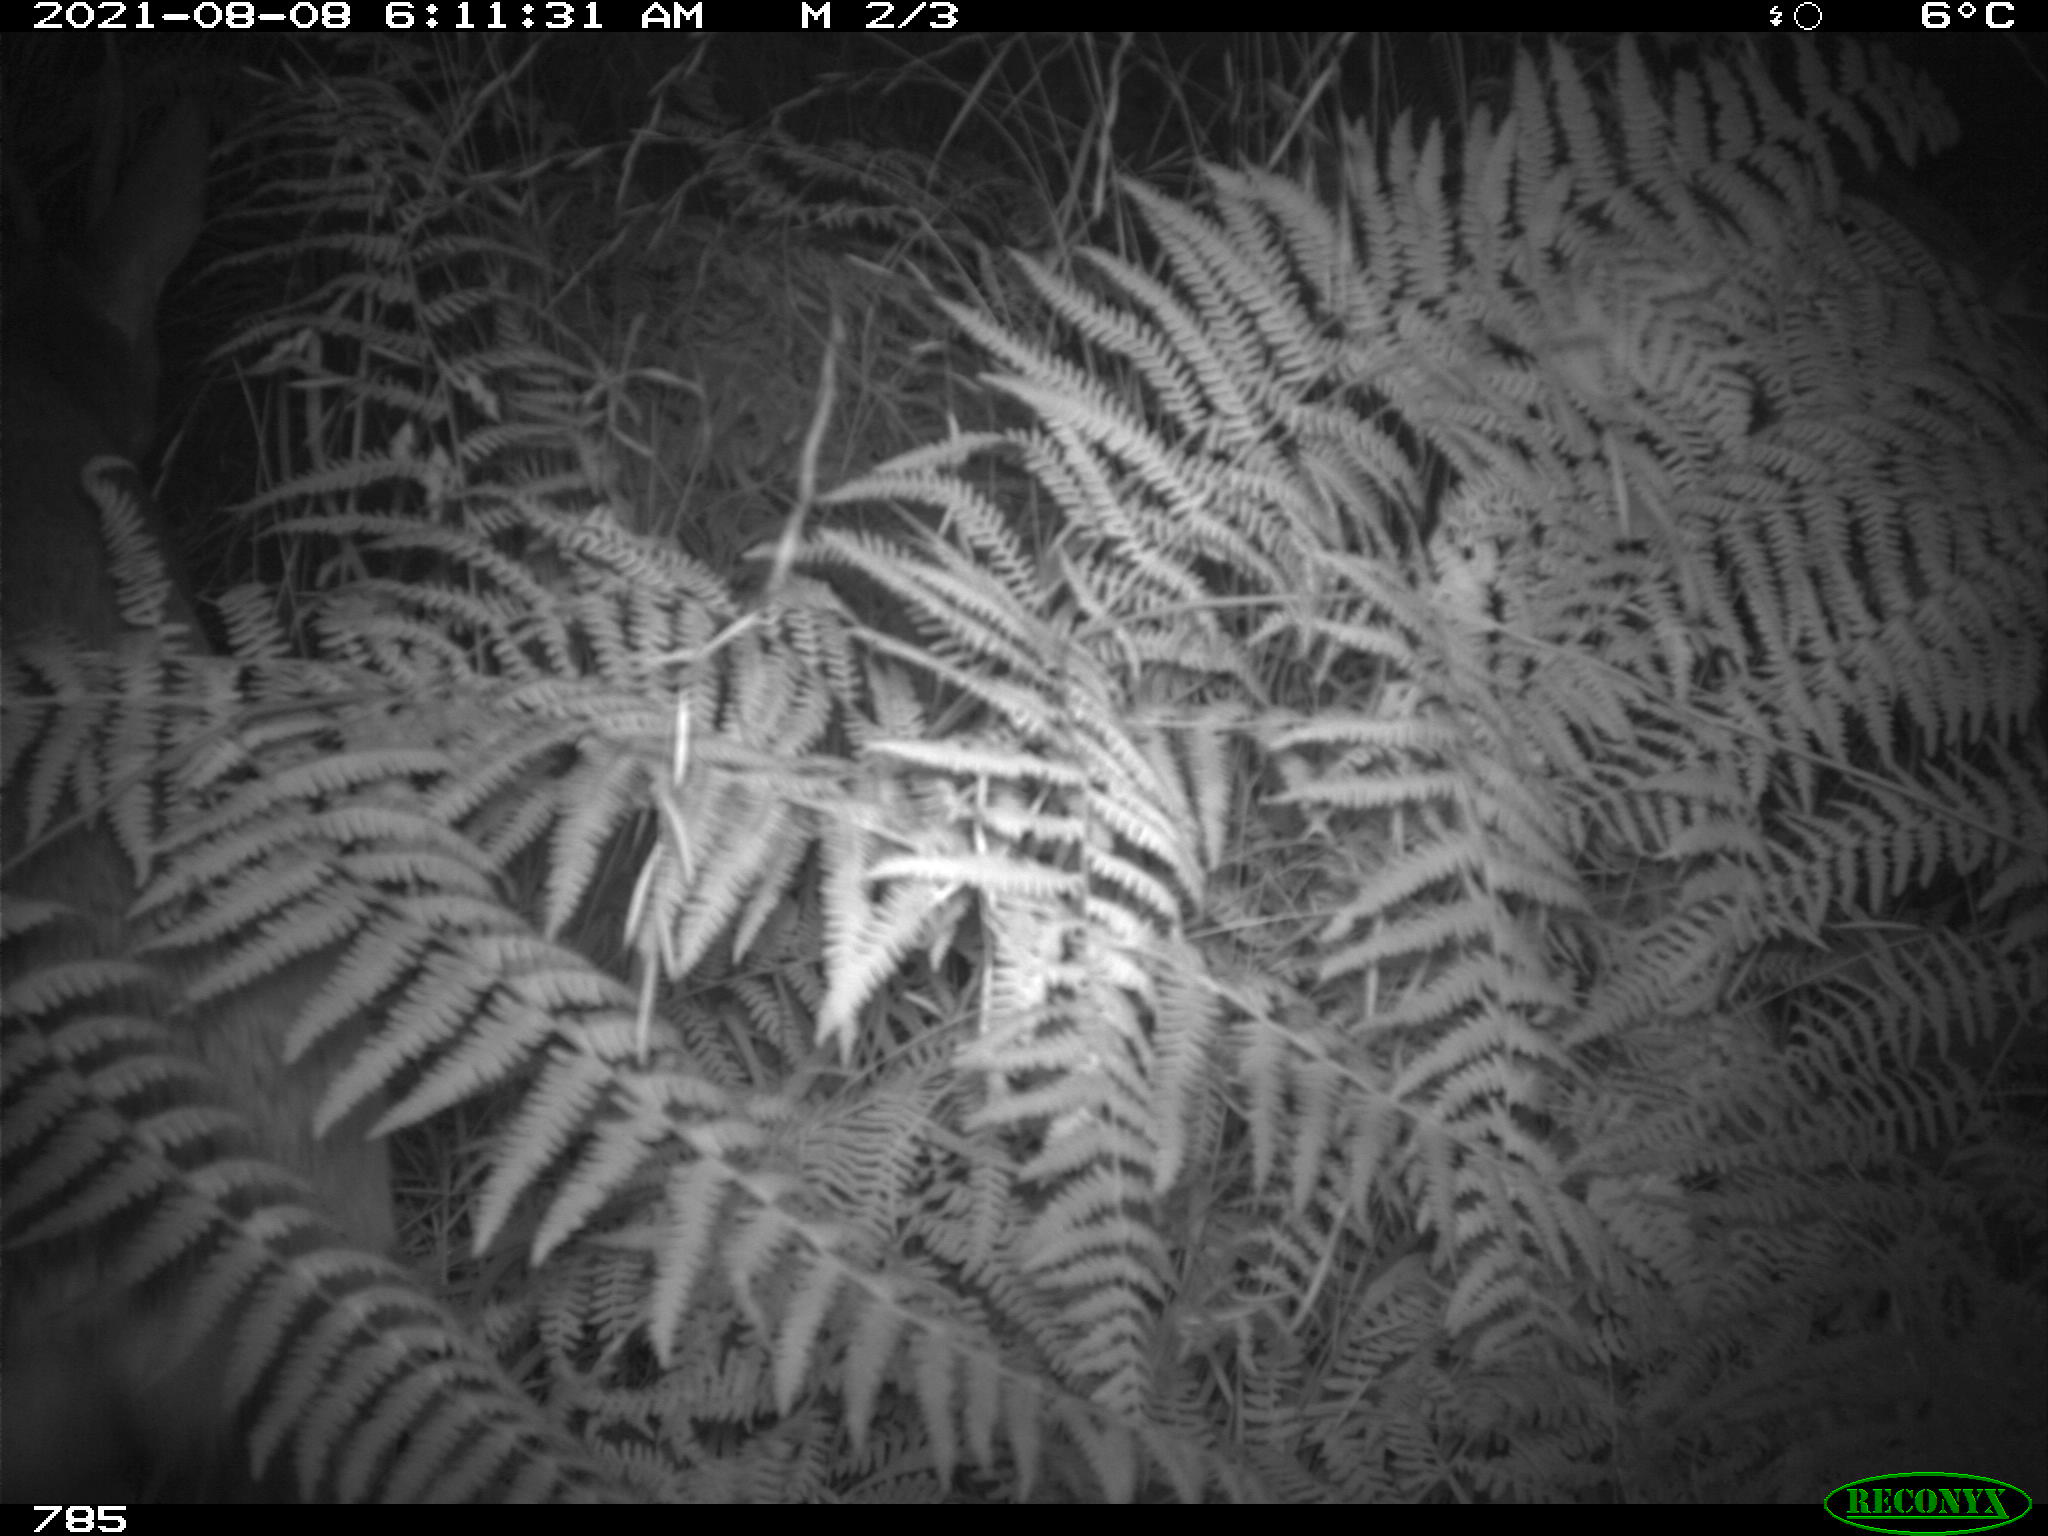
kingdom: Animalia
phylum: Chordata
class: Mammalia
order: Artiodactyla
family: Cervidae
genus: Capreolus
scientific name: Capreolus capreolus
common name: Western roe deer
